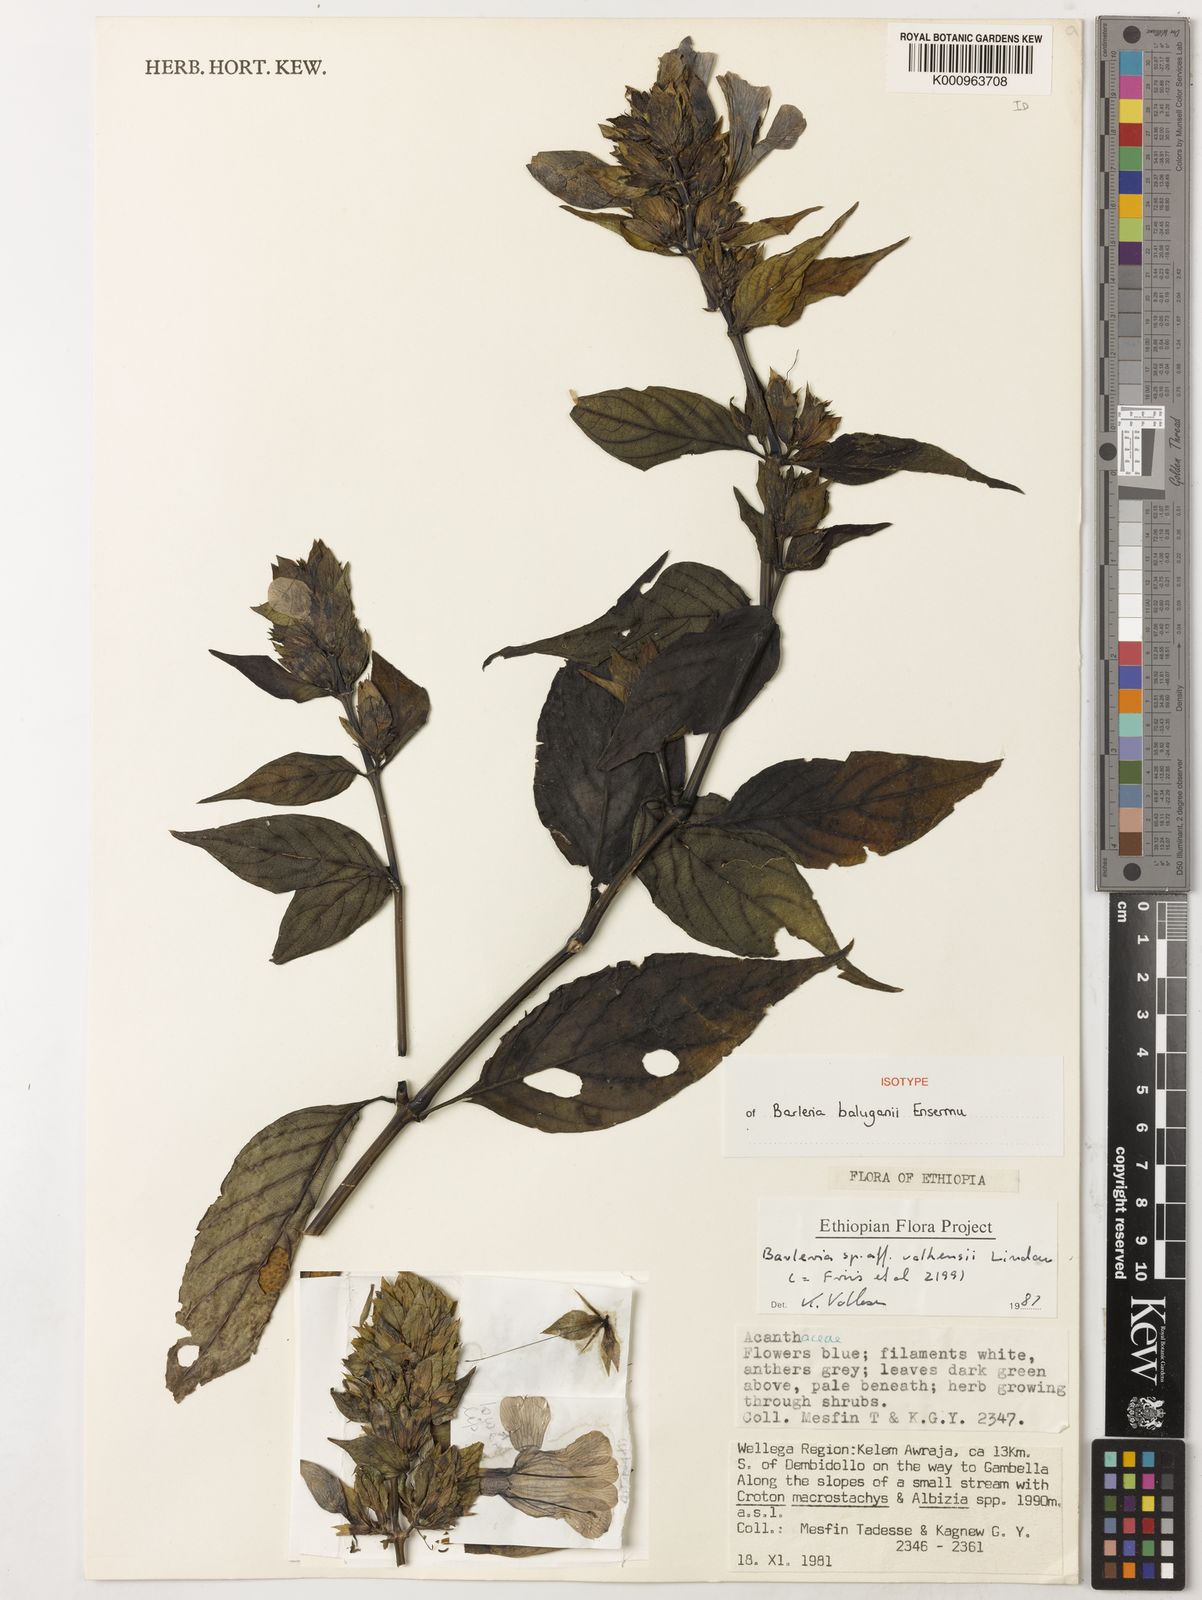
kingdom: Plantae
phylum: Tracheophyta
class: Magnoliopsida
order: Lamiales
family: Acanthaceae
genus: Barleria
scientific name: Barleria baluganii
